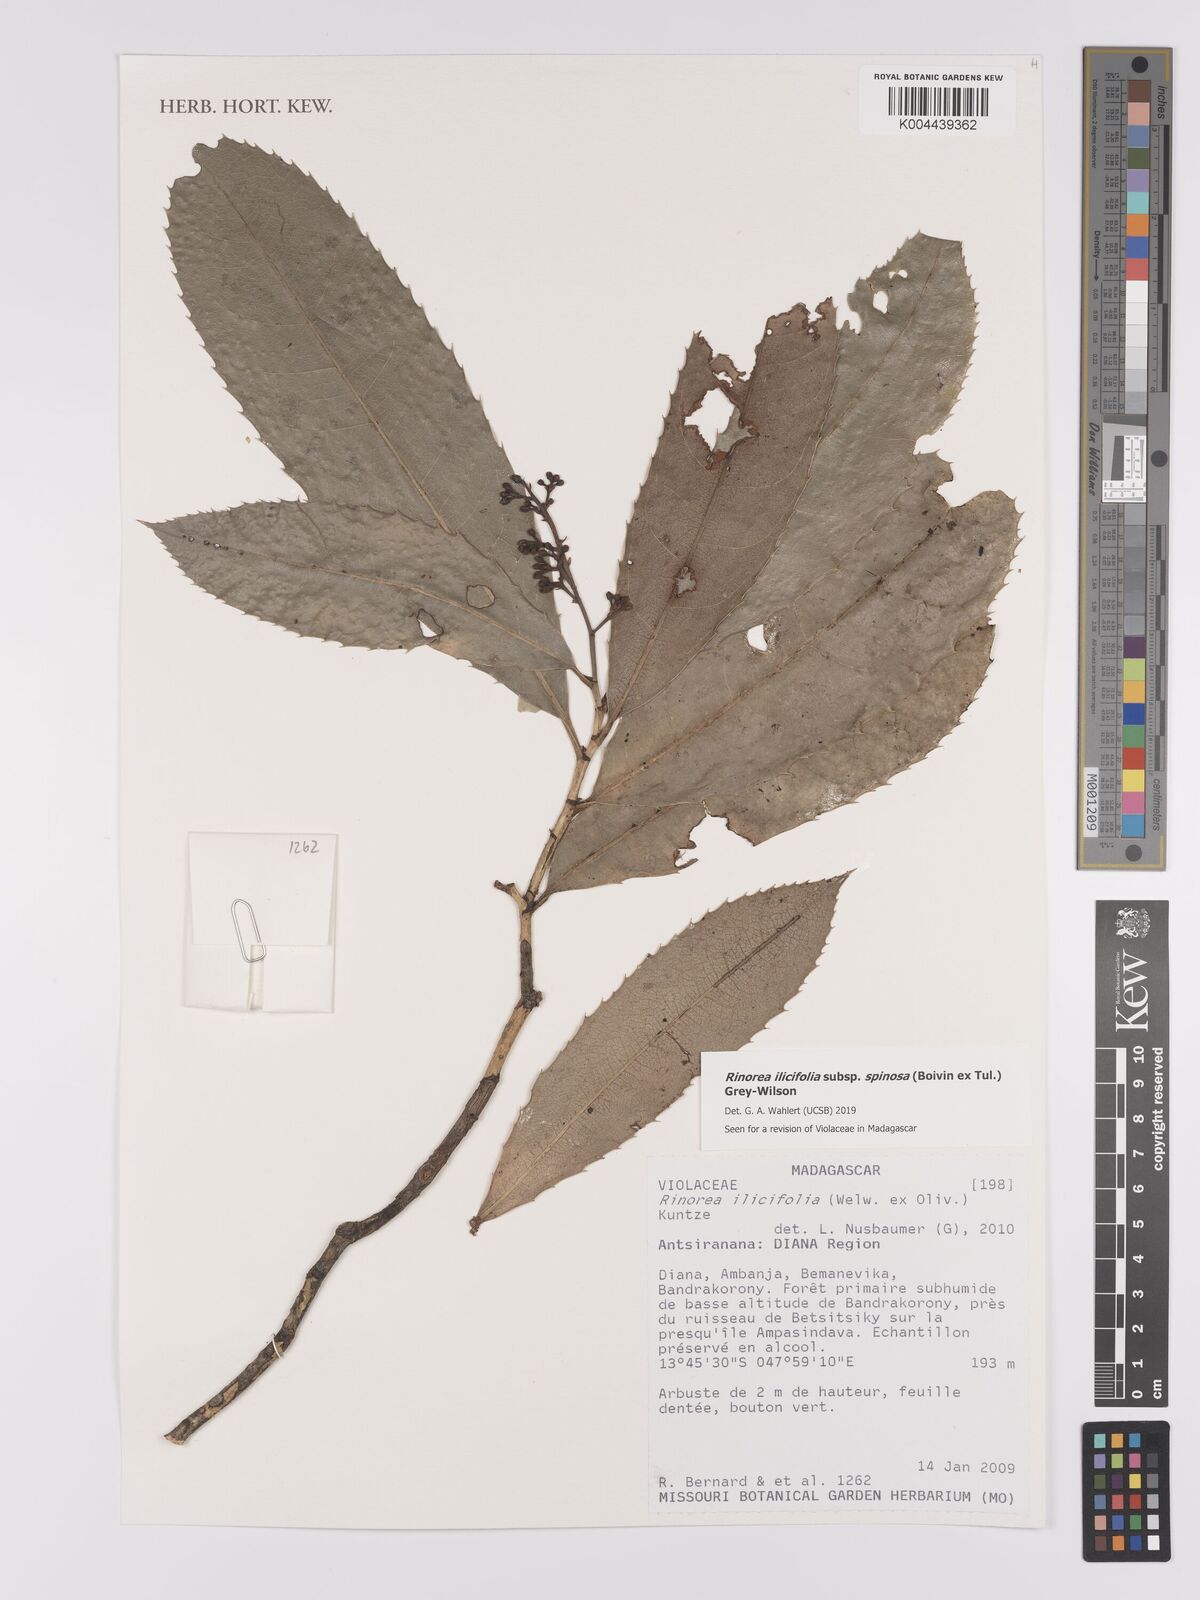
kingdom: Plantae
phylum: Tracheophyta
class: Magnoliopsida
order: Malpighiales
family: Violaceae
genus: Rinorea
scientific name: Rinorea spinosa
